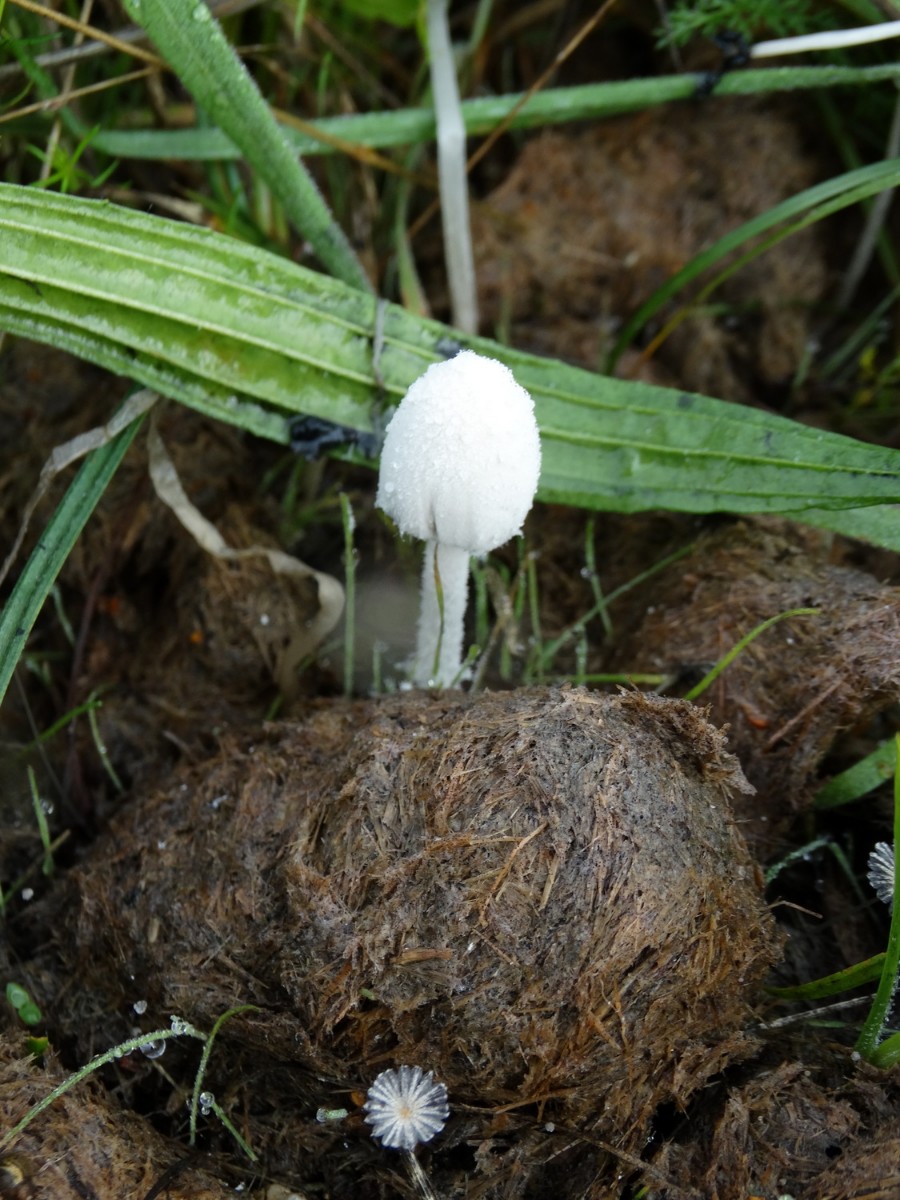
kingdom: Fungi
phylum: Basidiomycota
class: Agaricomycetes
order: Agaricales
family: Psathyrellaceae
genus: Coprinopsis
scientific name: Coprinopsis nivea
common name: snehvid blækhat
